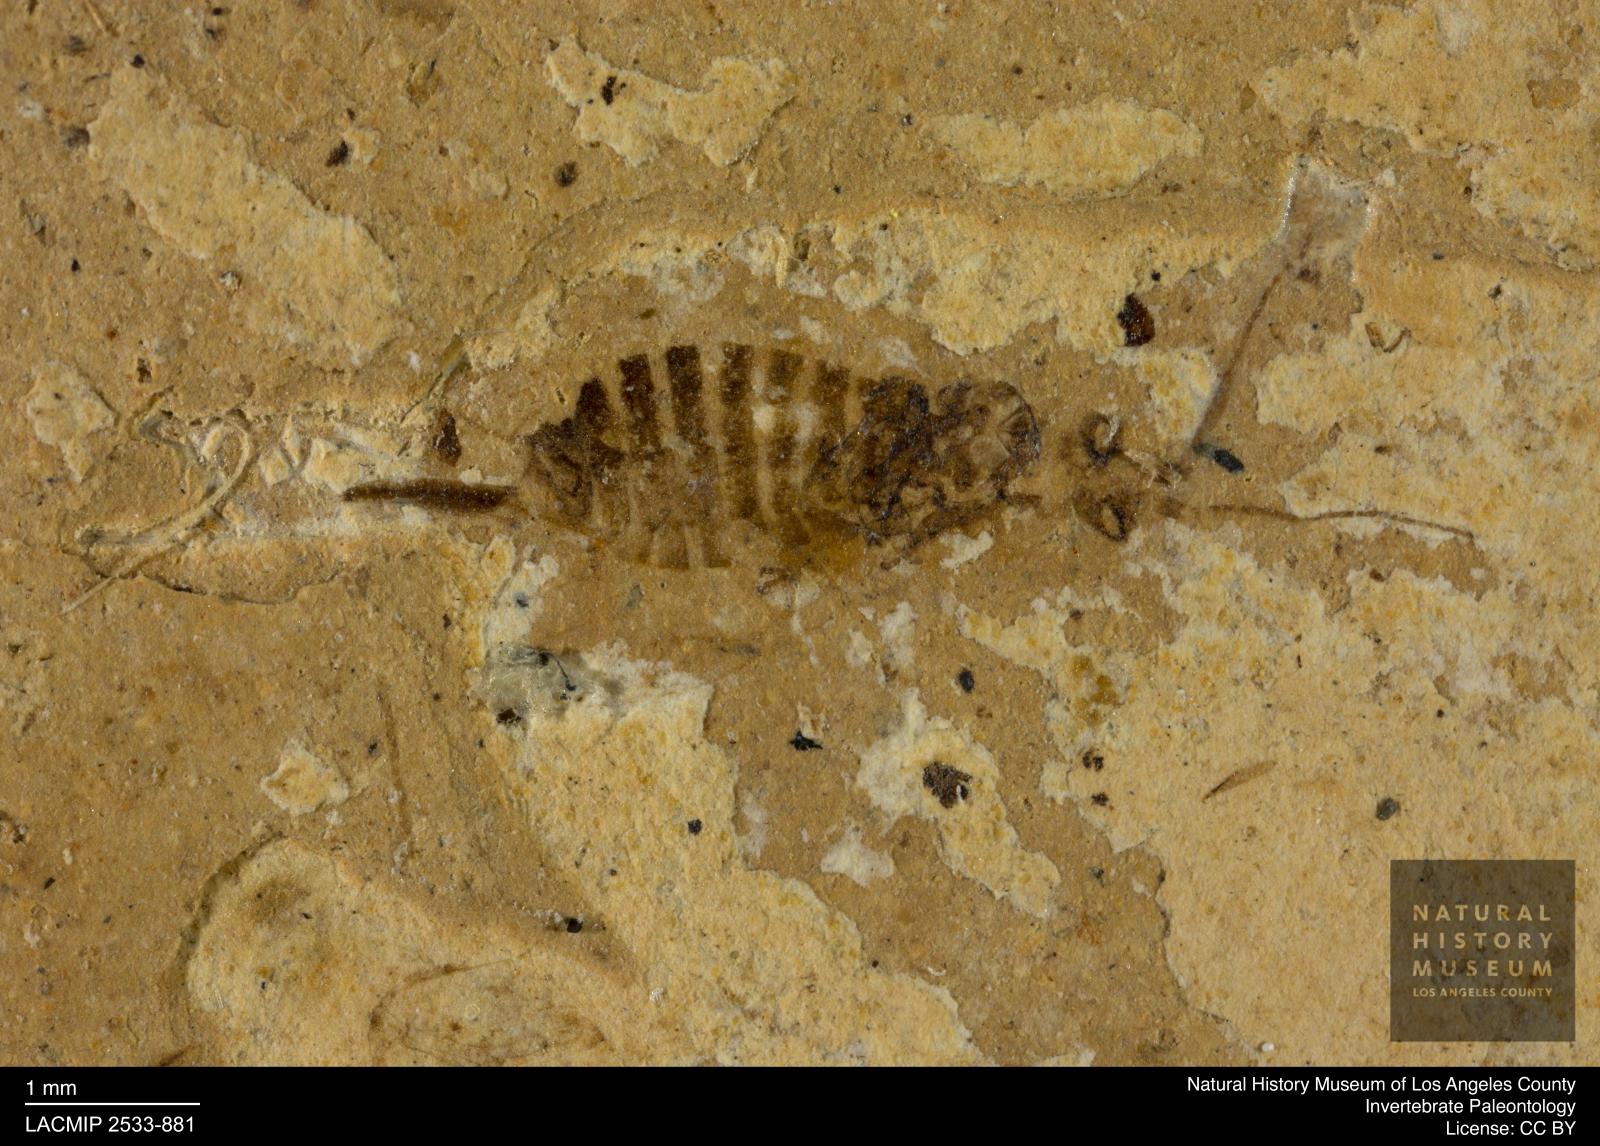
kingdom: Animalia
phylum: Arthropoda
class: Insecta
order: Hymenoptera
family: Xyelidae
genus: Xyela
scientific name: Xyela menelaus
